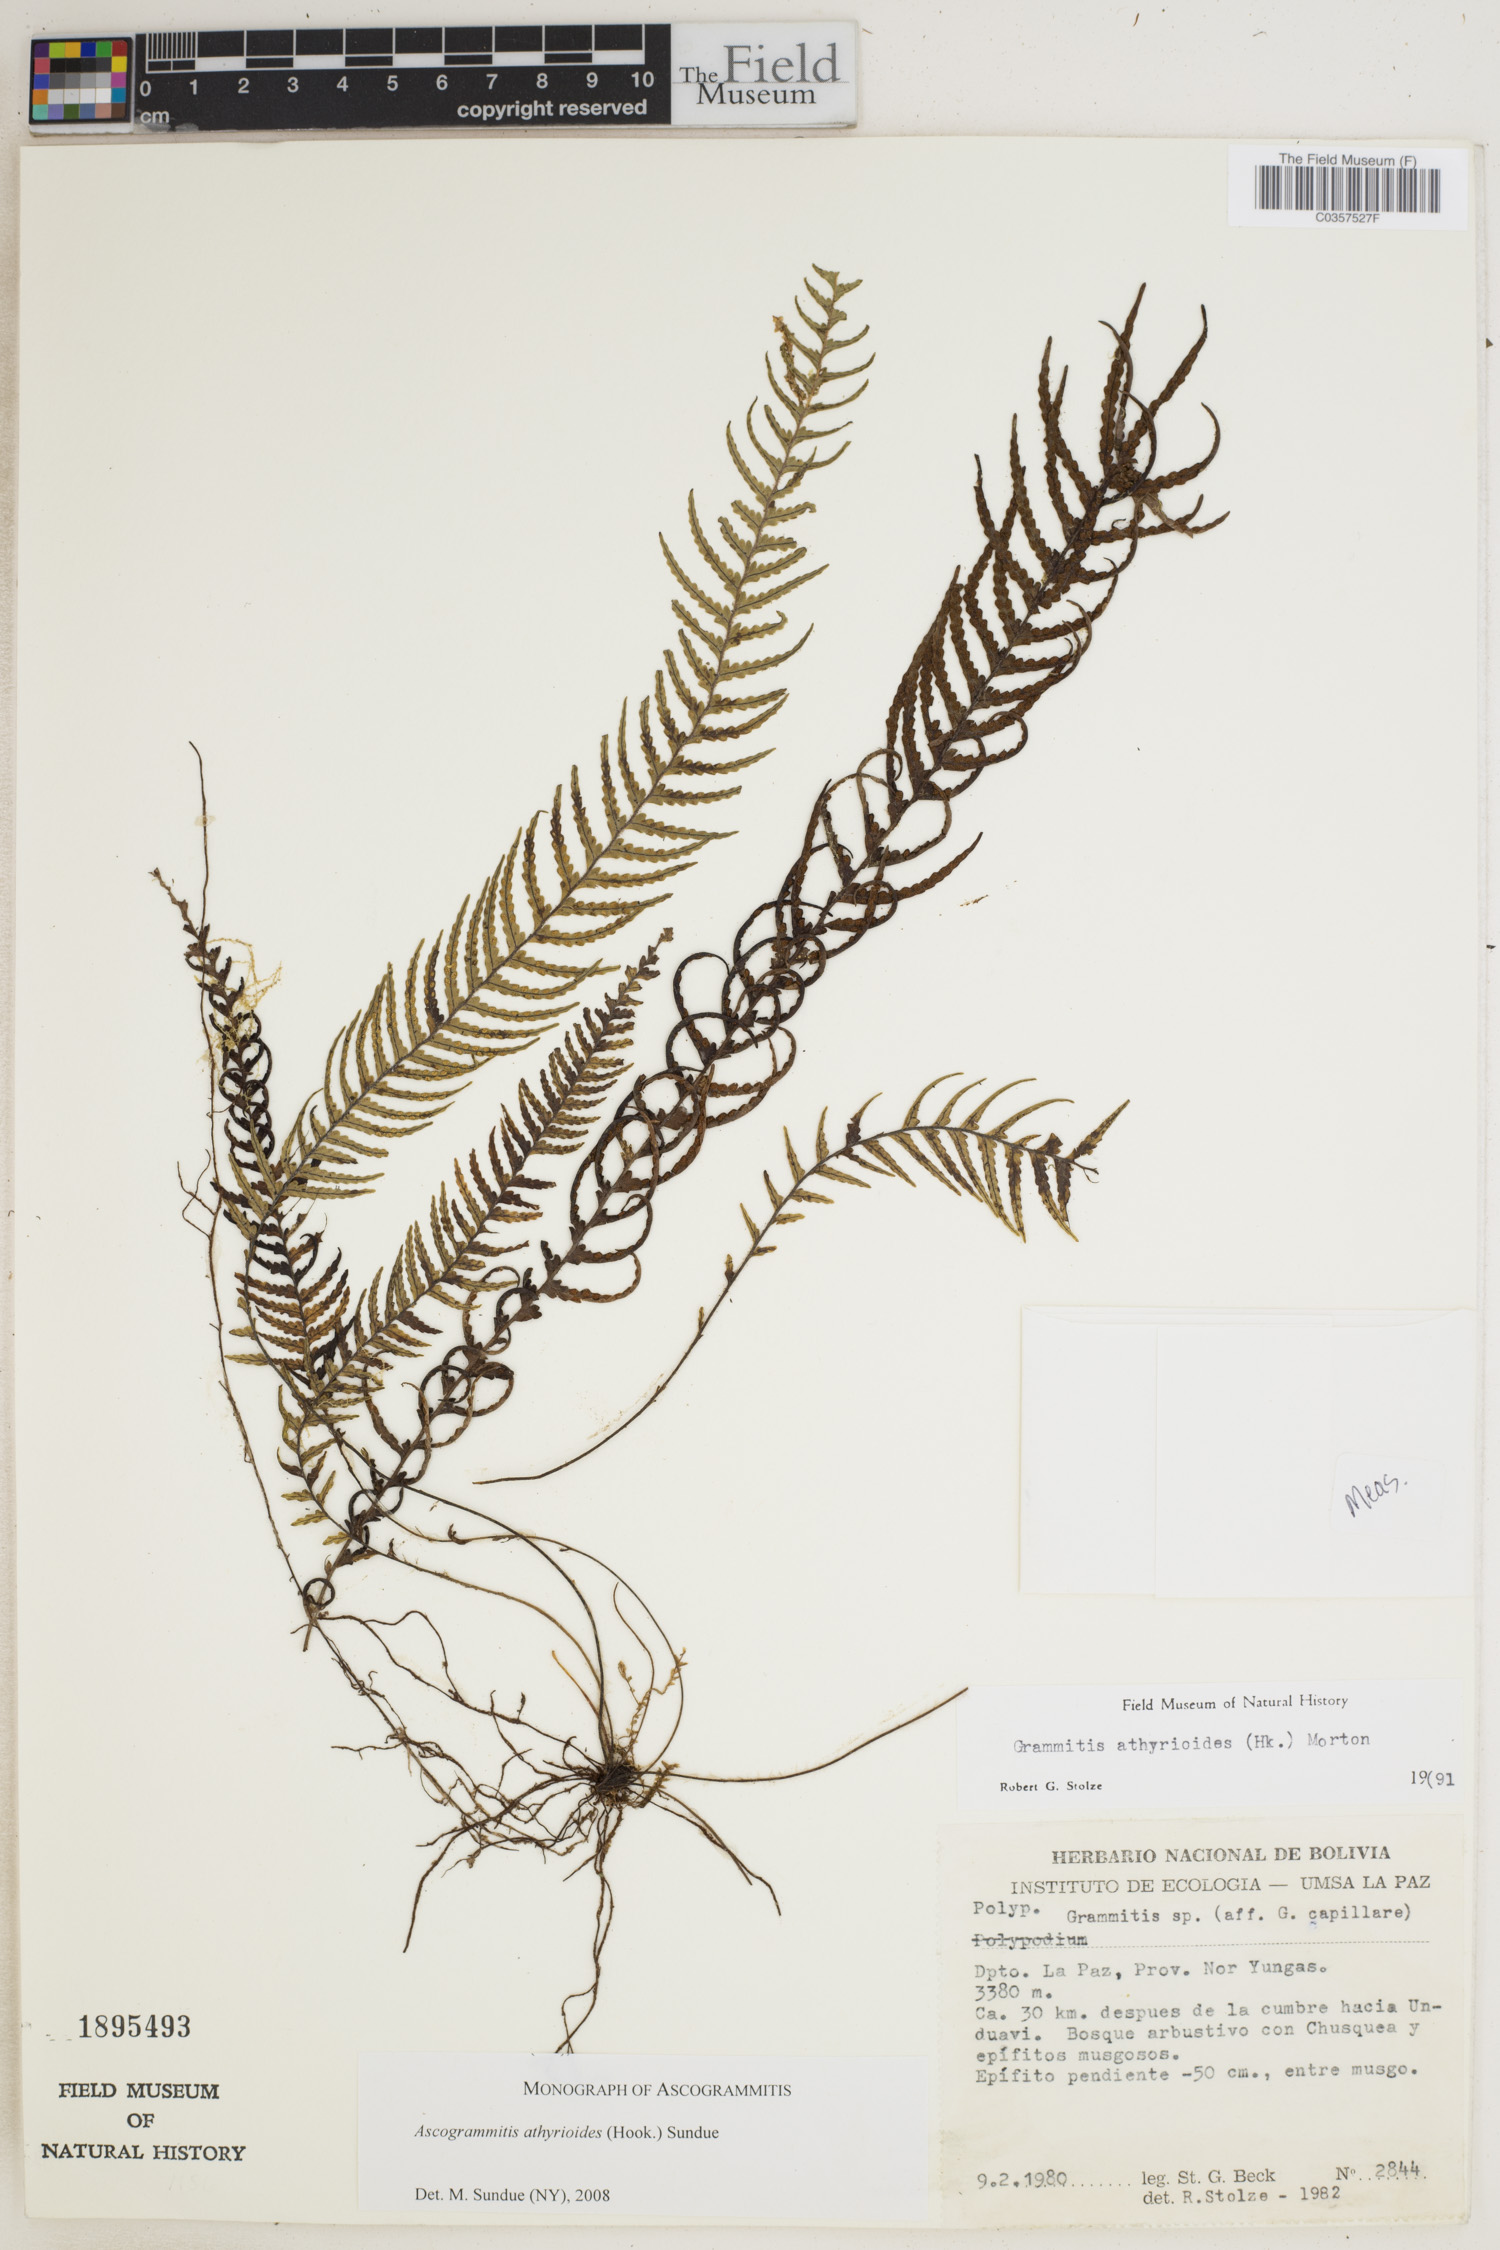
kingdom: Plantae
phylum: Tracheophyta
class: Polypodiopsida
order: Polypodiales
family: Polypodiaceae
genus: Ascogrammitis
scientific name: Ascogrammitis athyrioides
